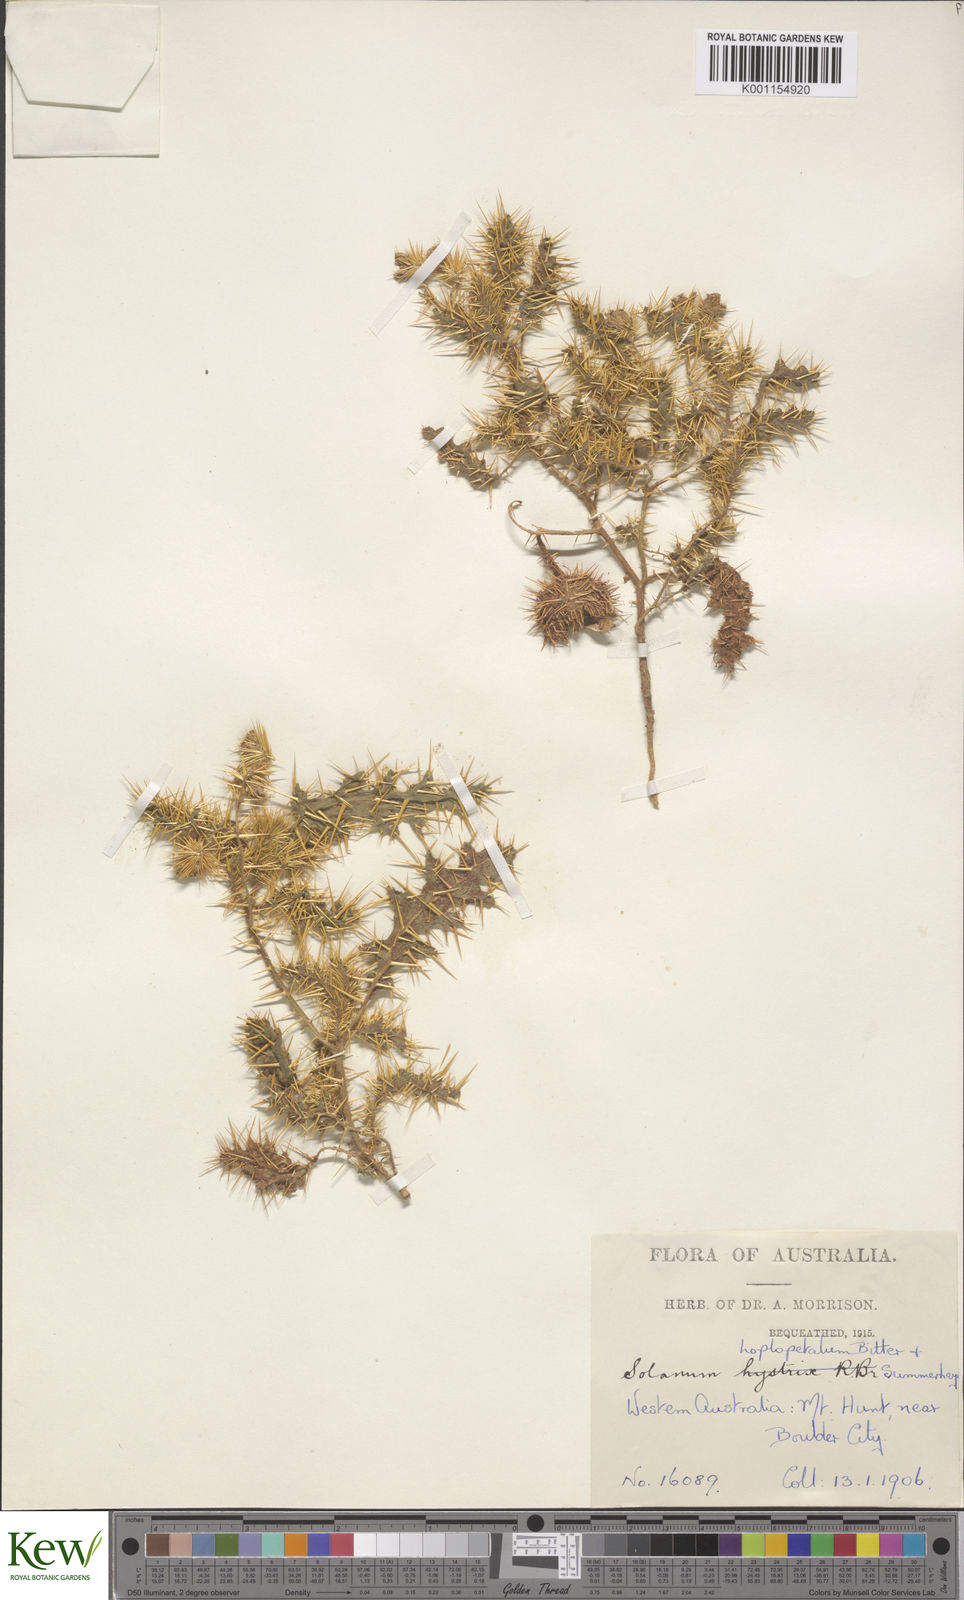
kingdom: Plantae
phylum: Tracheophyta
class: Magnoliopsida
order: Solanales
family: Solanaceae
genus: Solanum
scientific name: Solanum hoplopetalum
